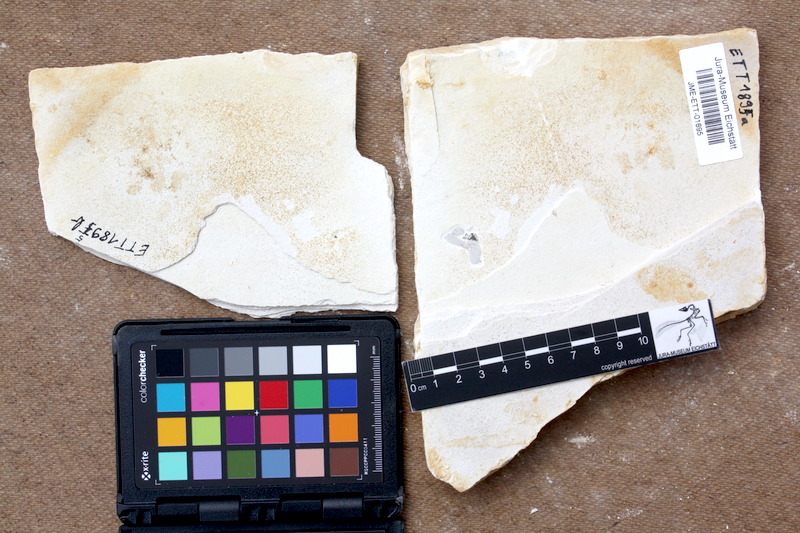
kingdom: Animalia
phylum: Chordata
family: Pycnodontidae
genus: Turbomesodon
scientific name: Turbomesodon relegans
